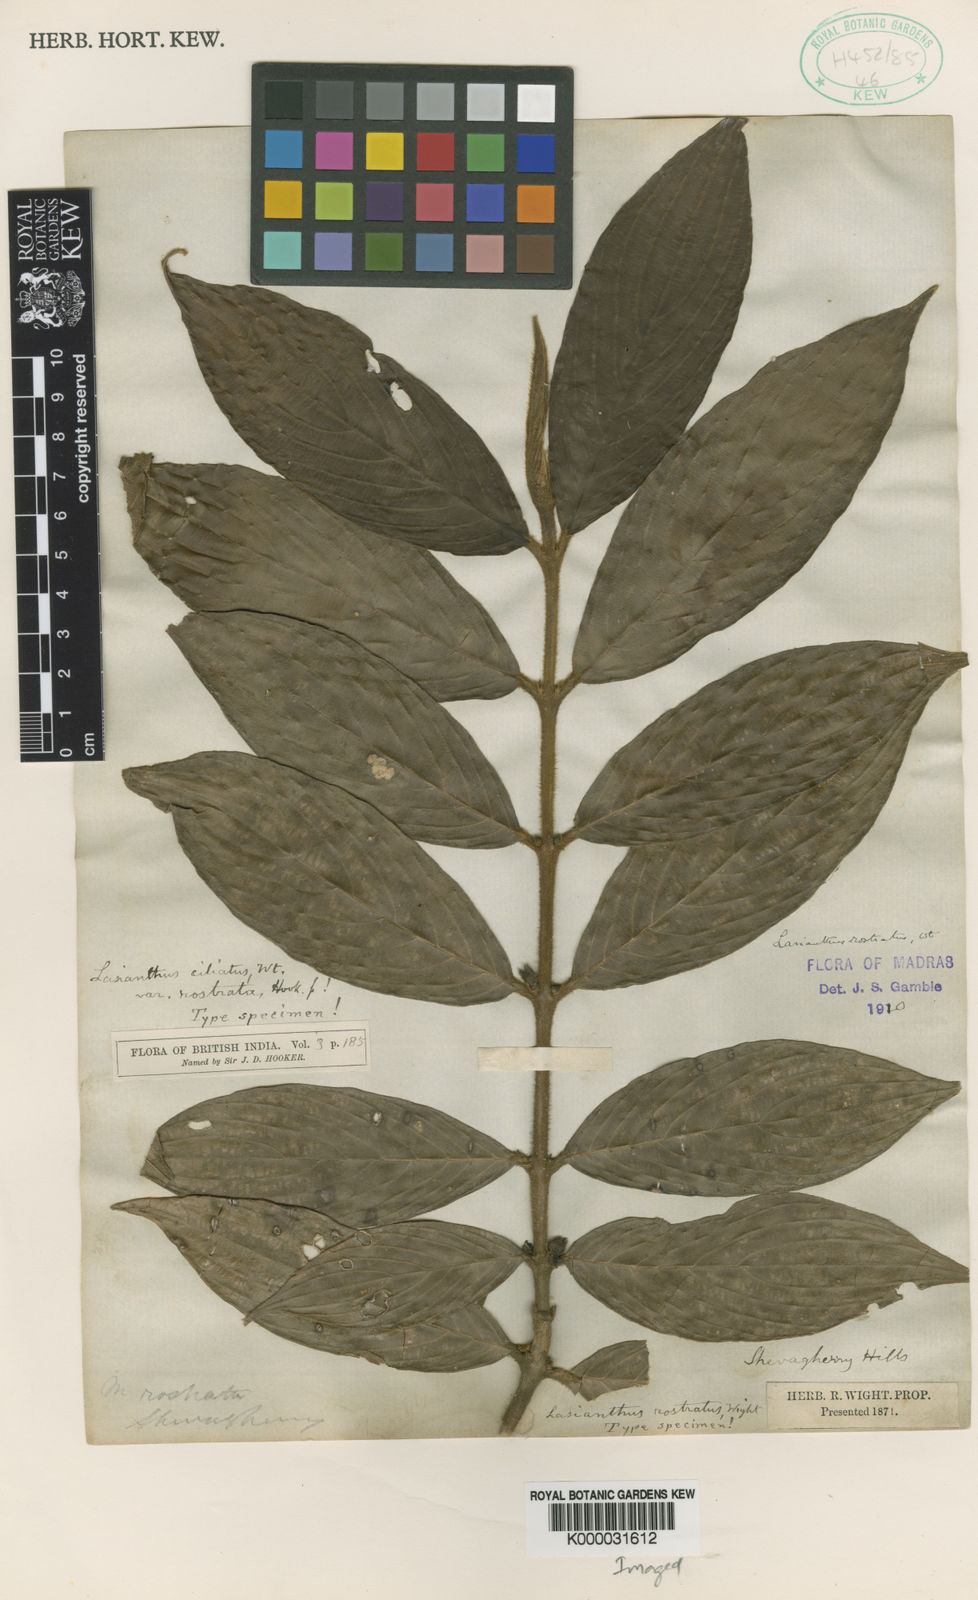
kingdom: Plantae
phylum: Tracheophyta
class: Magnoliopsida
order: Gentianales
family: Rubiaceae
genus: Lasianthus
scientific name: Lasianthus ciliatus
